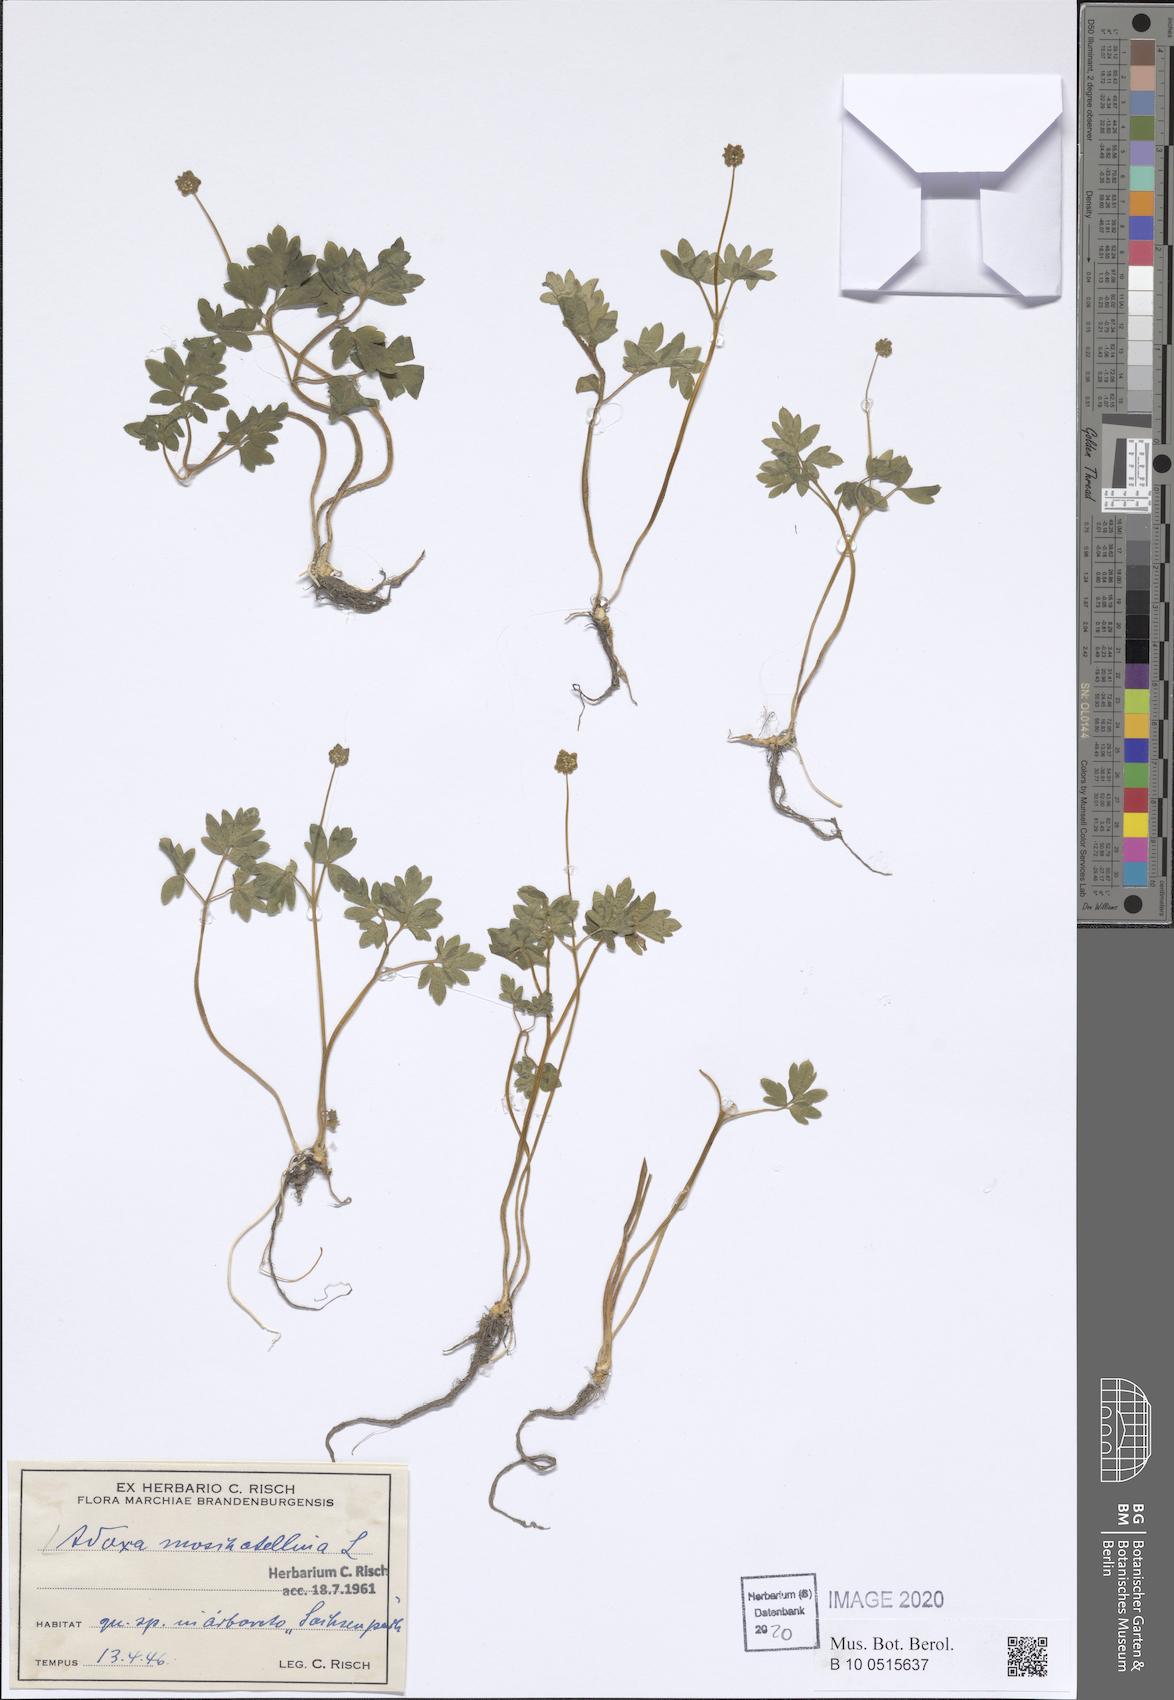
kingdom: Plantae
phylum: Tracheophyta
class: Magnoliopsida
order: Dipsacales
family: Viburnaceae
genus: Adoxa
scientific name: Adoxa moschatellina
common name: Moschatel
